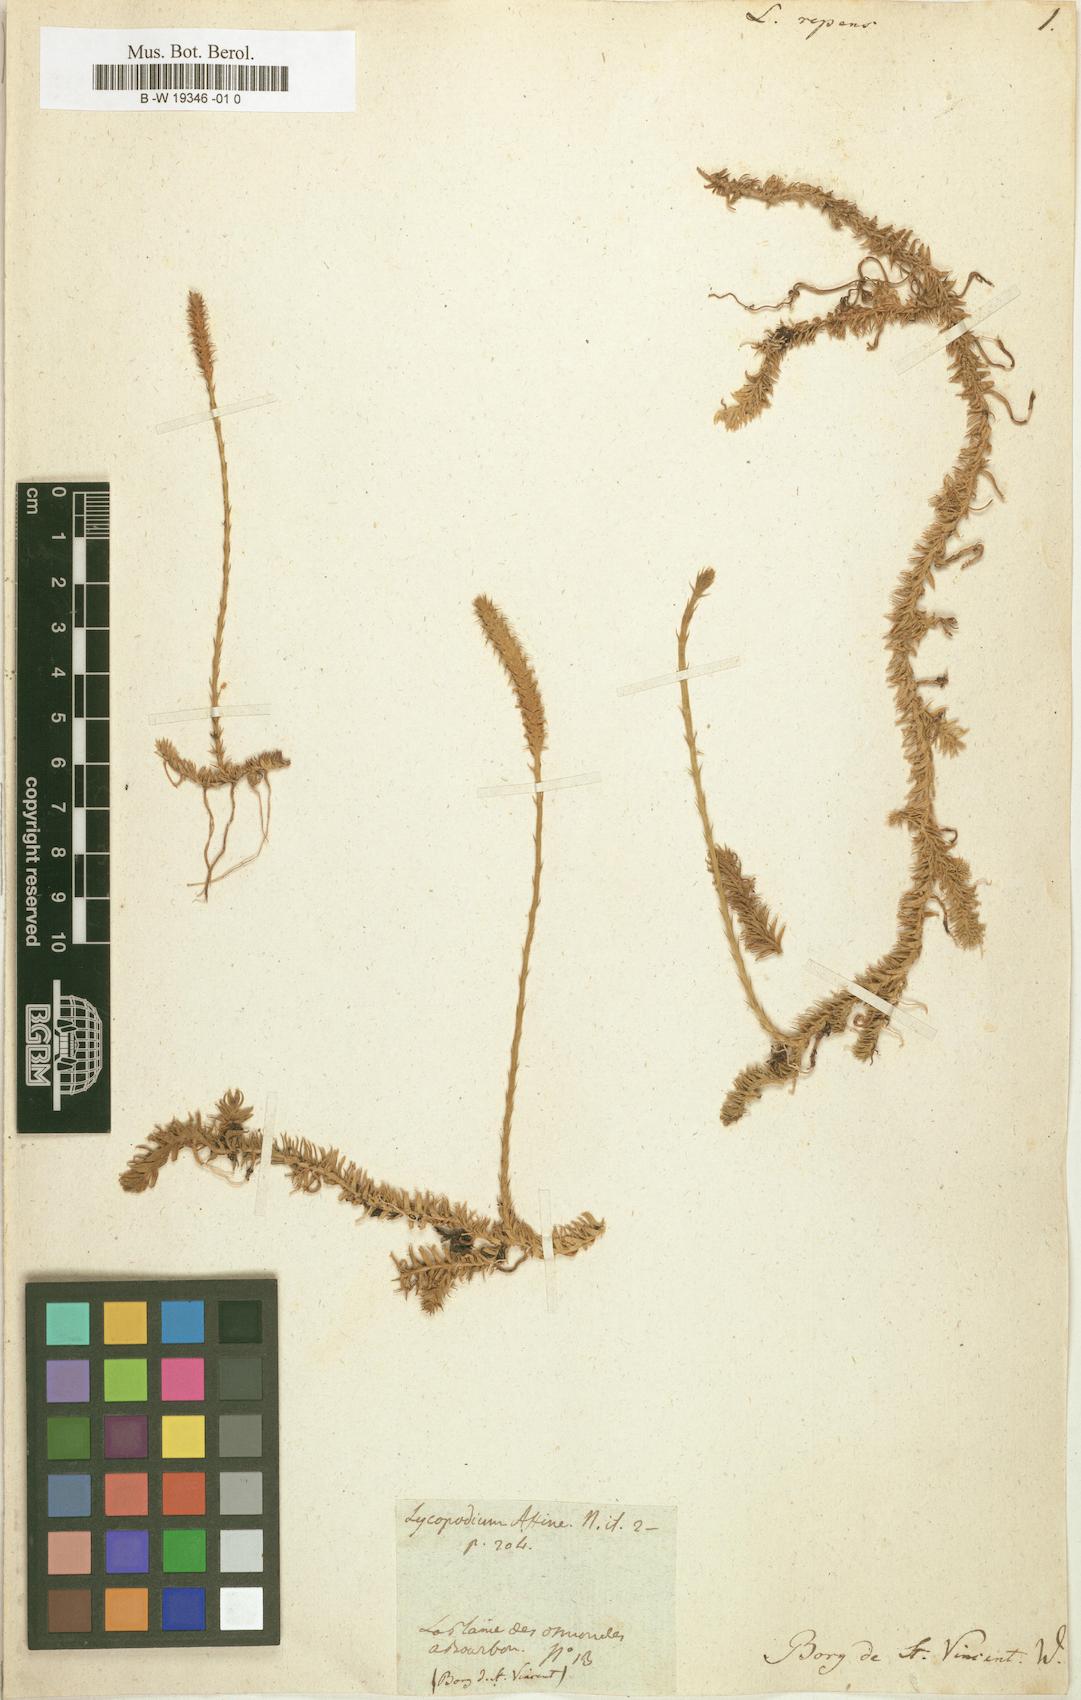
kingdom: Plantae
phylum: Tracheophyta
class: Lycopodiopsida
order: Lycopodiales
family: Lycopodiaceae
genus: Lycopodium
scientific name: Lycopodium repens
